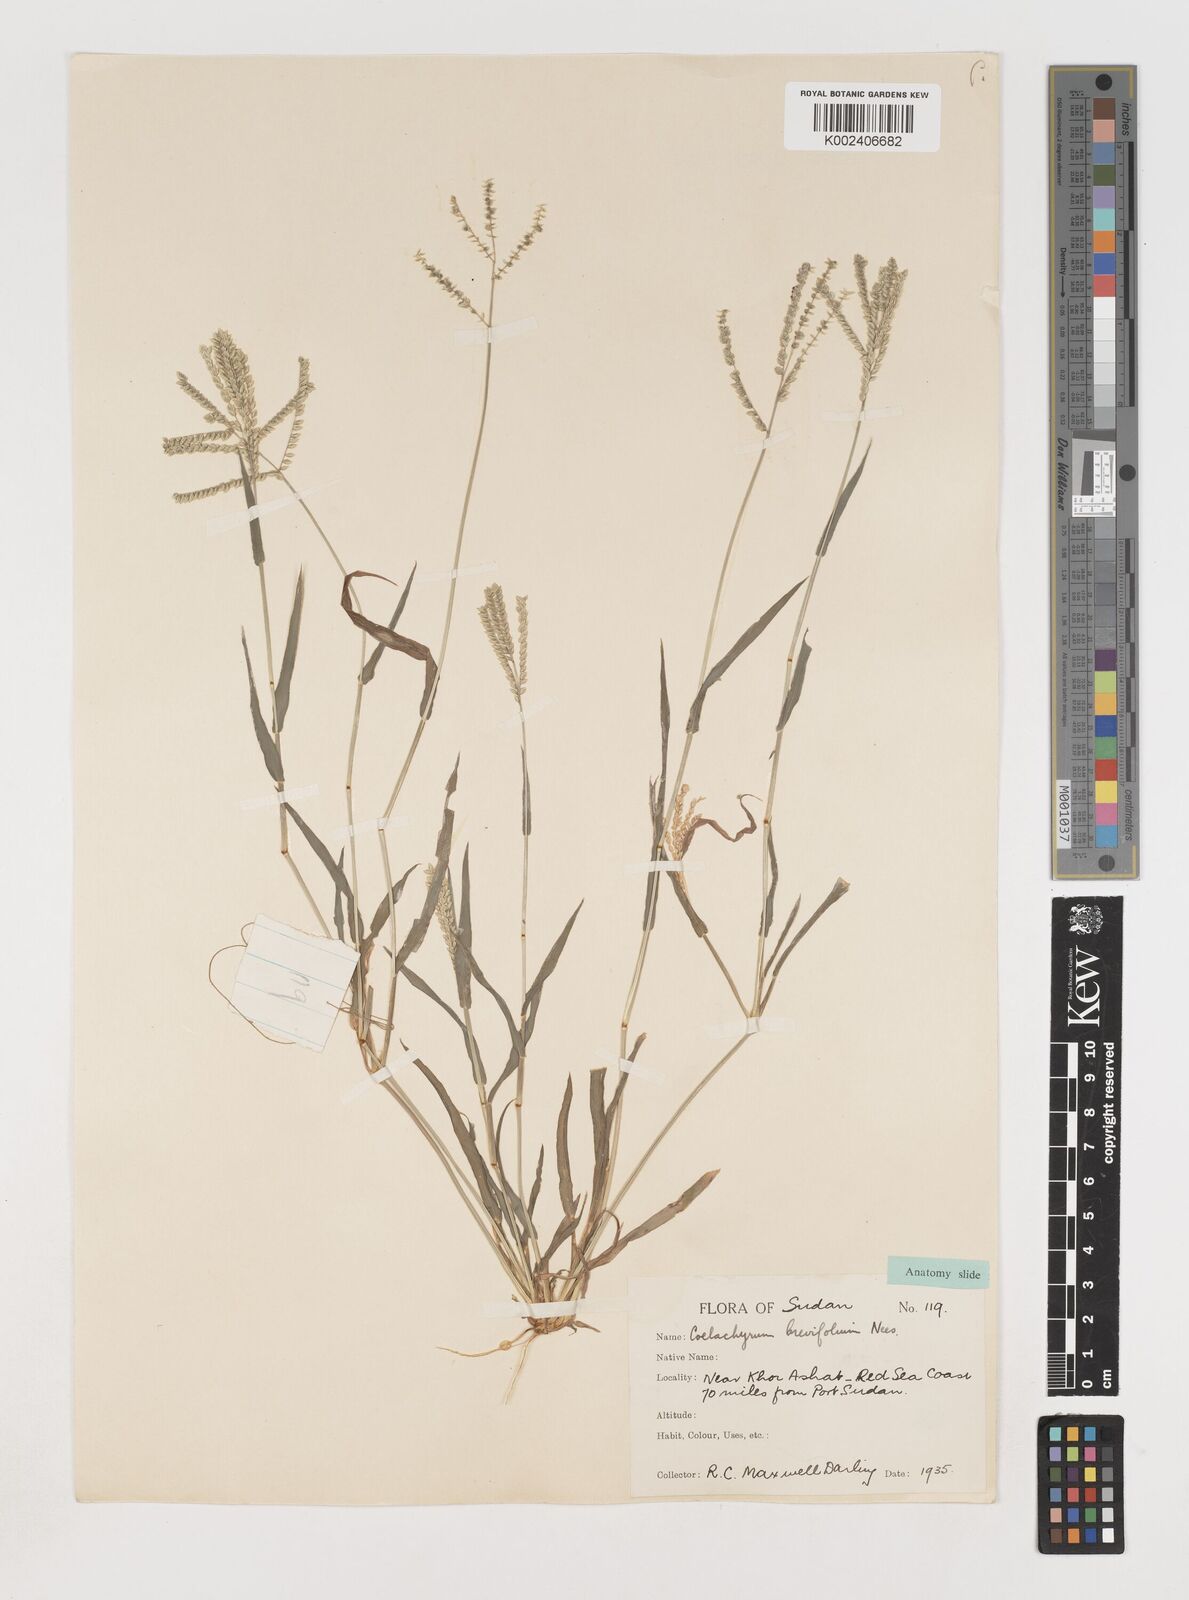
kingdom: Plantae
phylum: Tracheophyta
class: Liliopsida
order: Poales
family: Poaceae
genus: Coelachyrum
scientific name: Coelachyrum brevifolium
